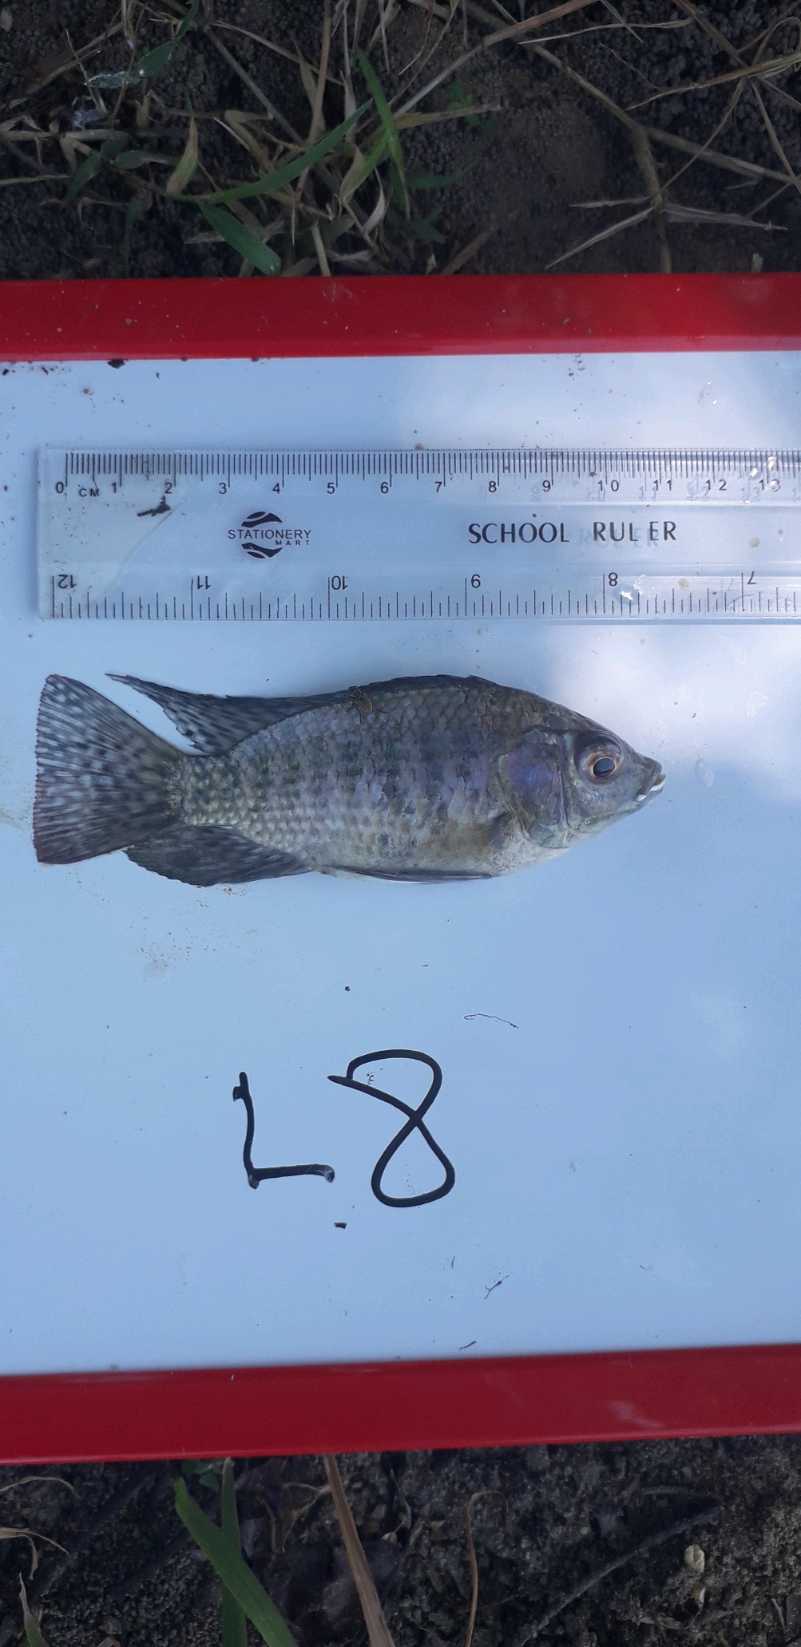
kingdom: Animalia
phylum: Chordata
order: Perciformes
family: Cichlidae
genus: Oreochromis
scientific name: Oreochromis leucostictus
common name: Blue spotted tilapia
